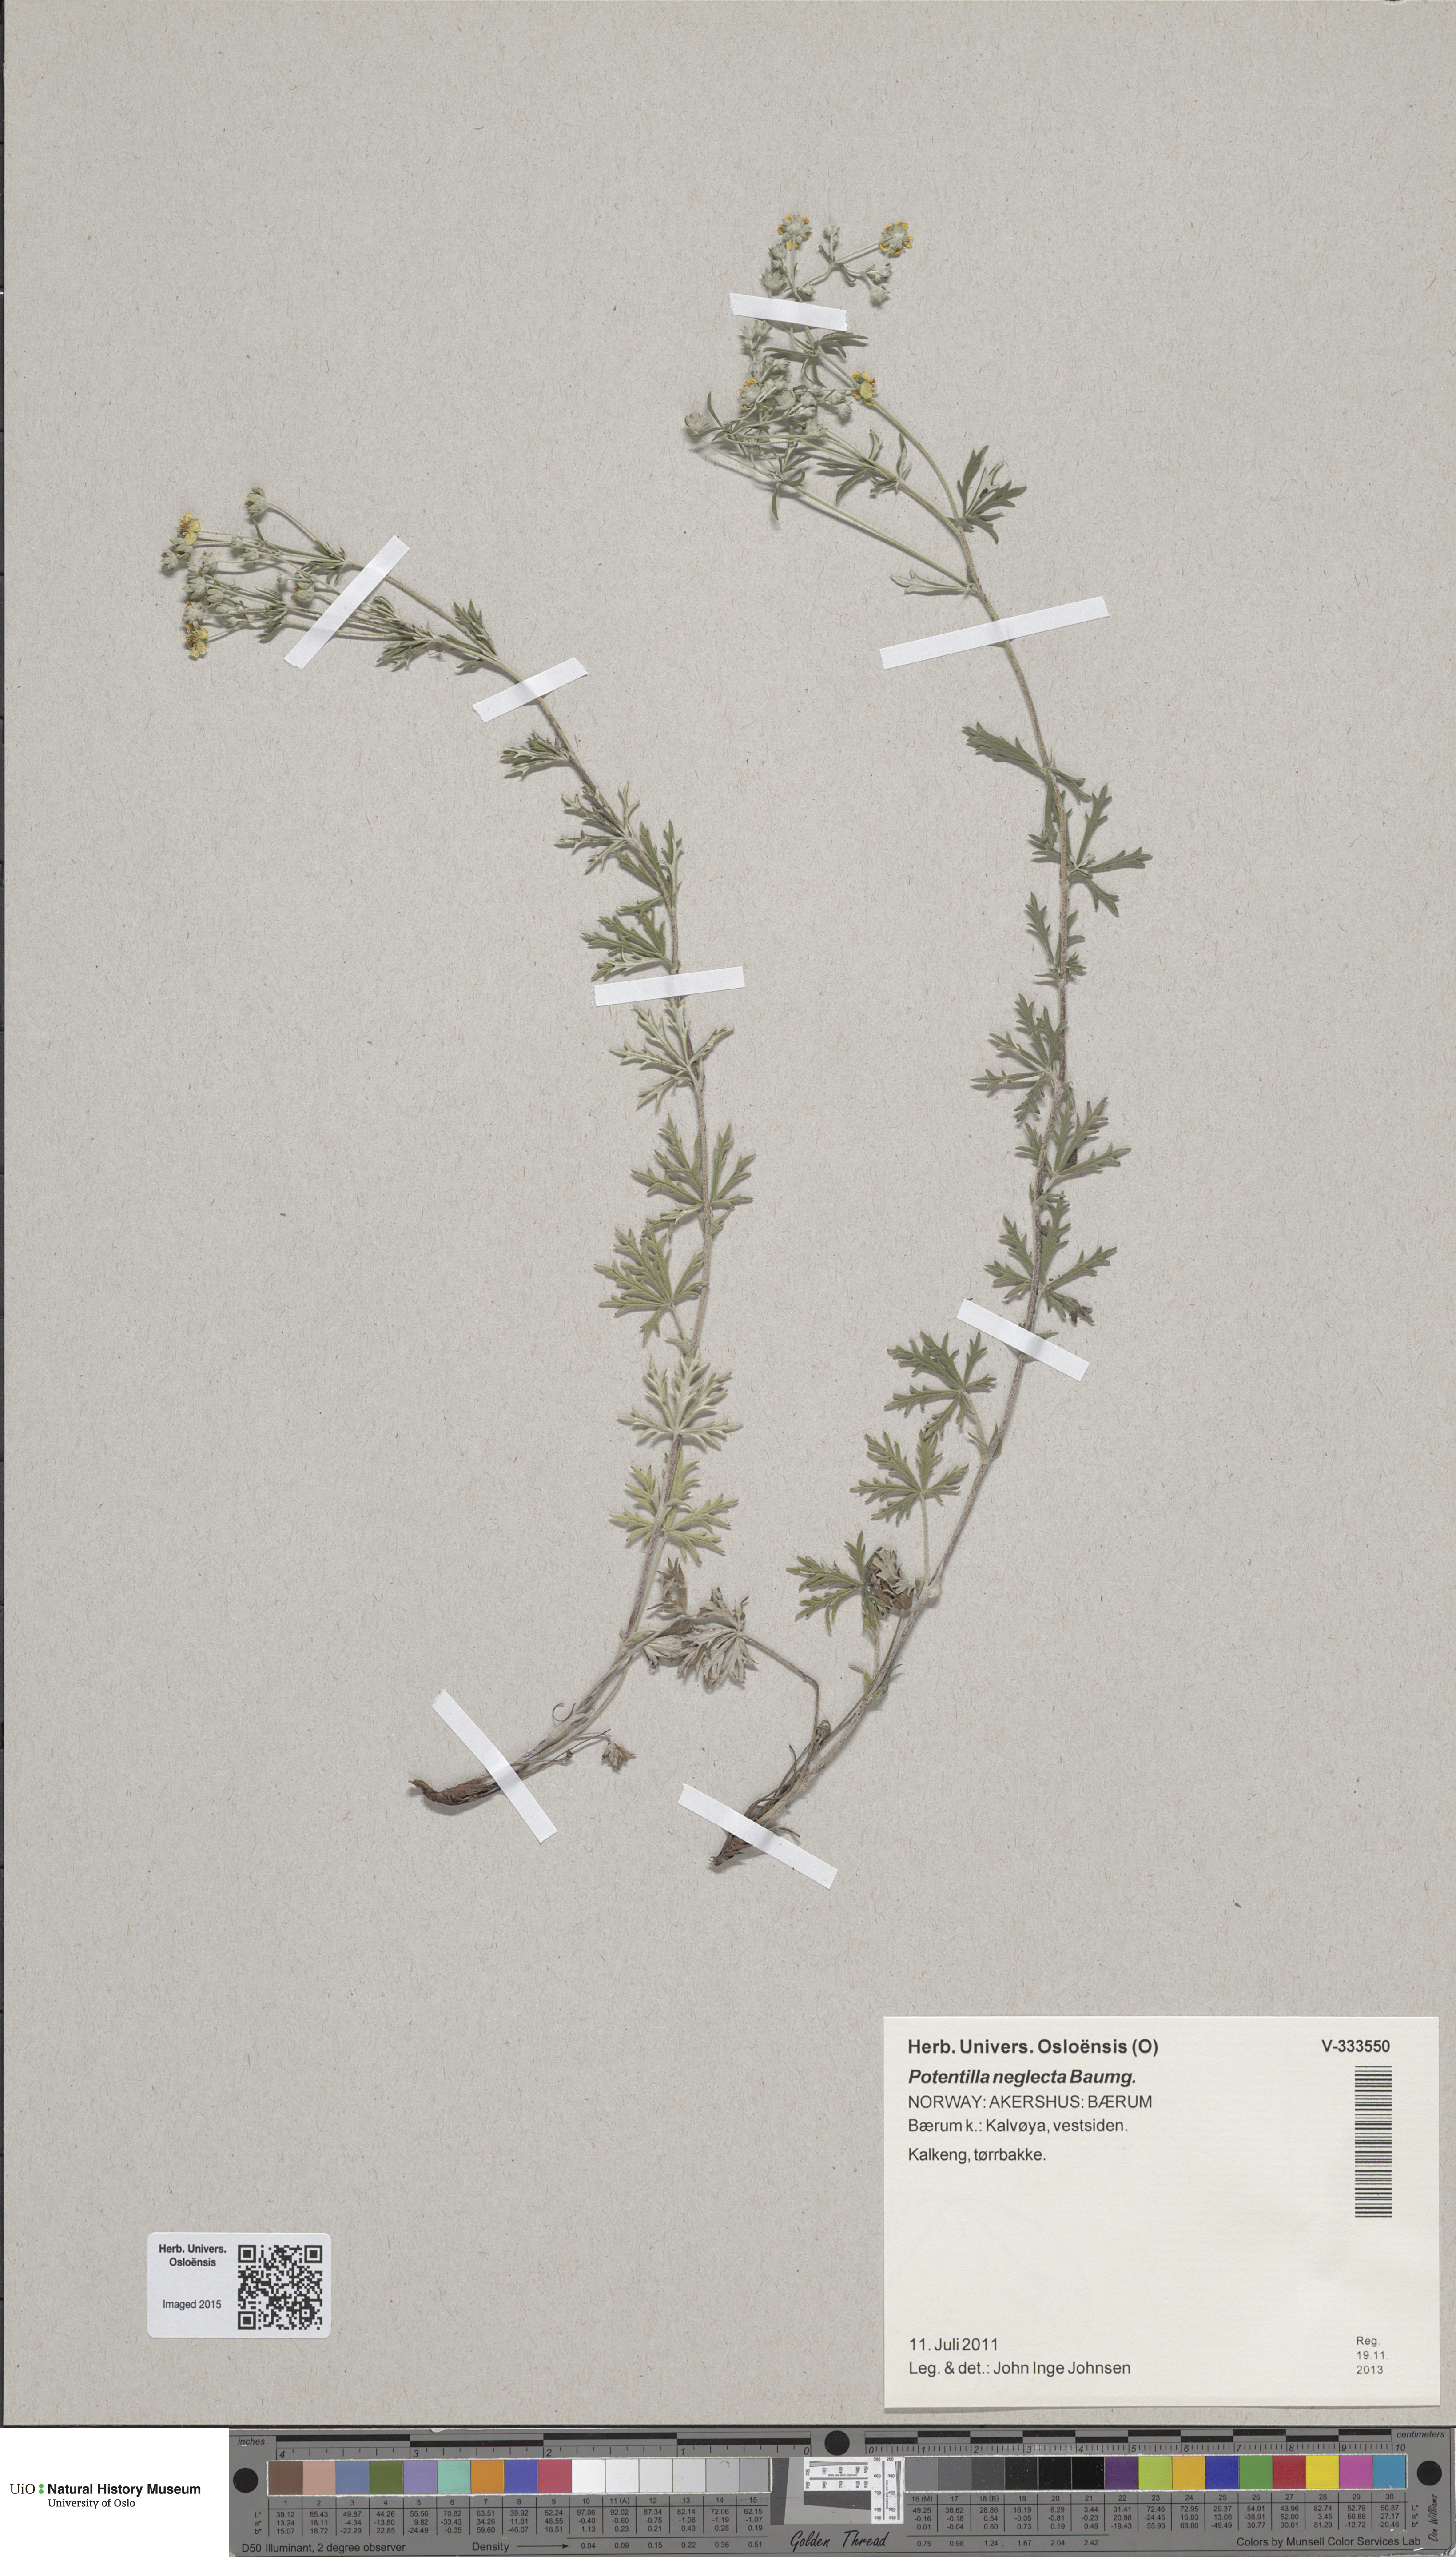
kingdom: Plantae
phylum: Tracheophyta
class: Magnoliopsida
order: Rosales
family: Rosaceae
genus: Potentilla
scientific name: Potentilla neglecta
